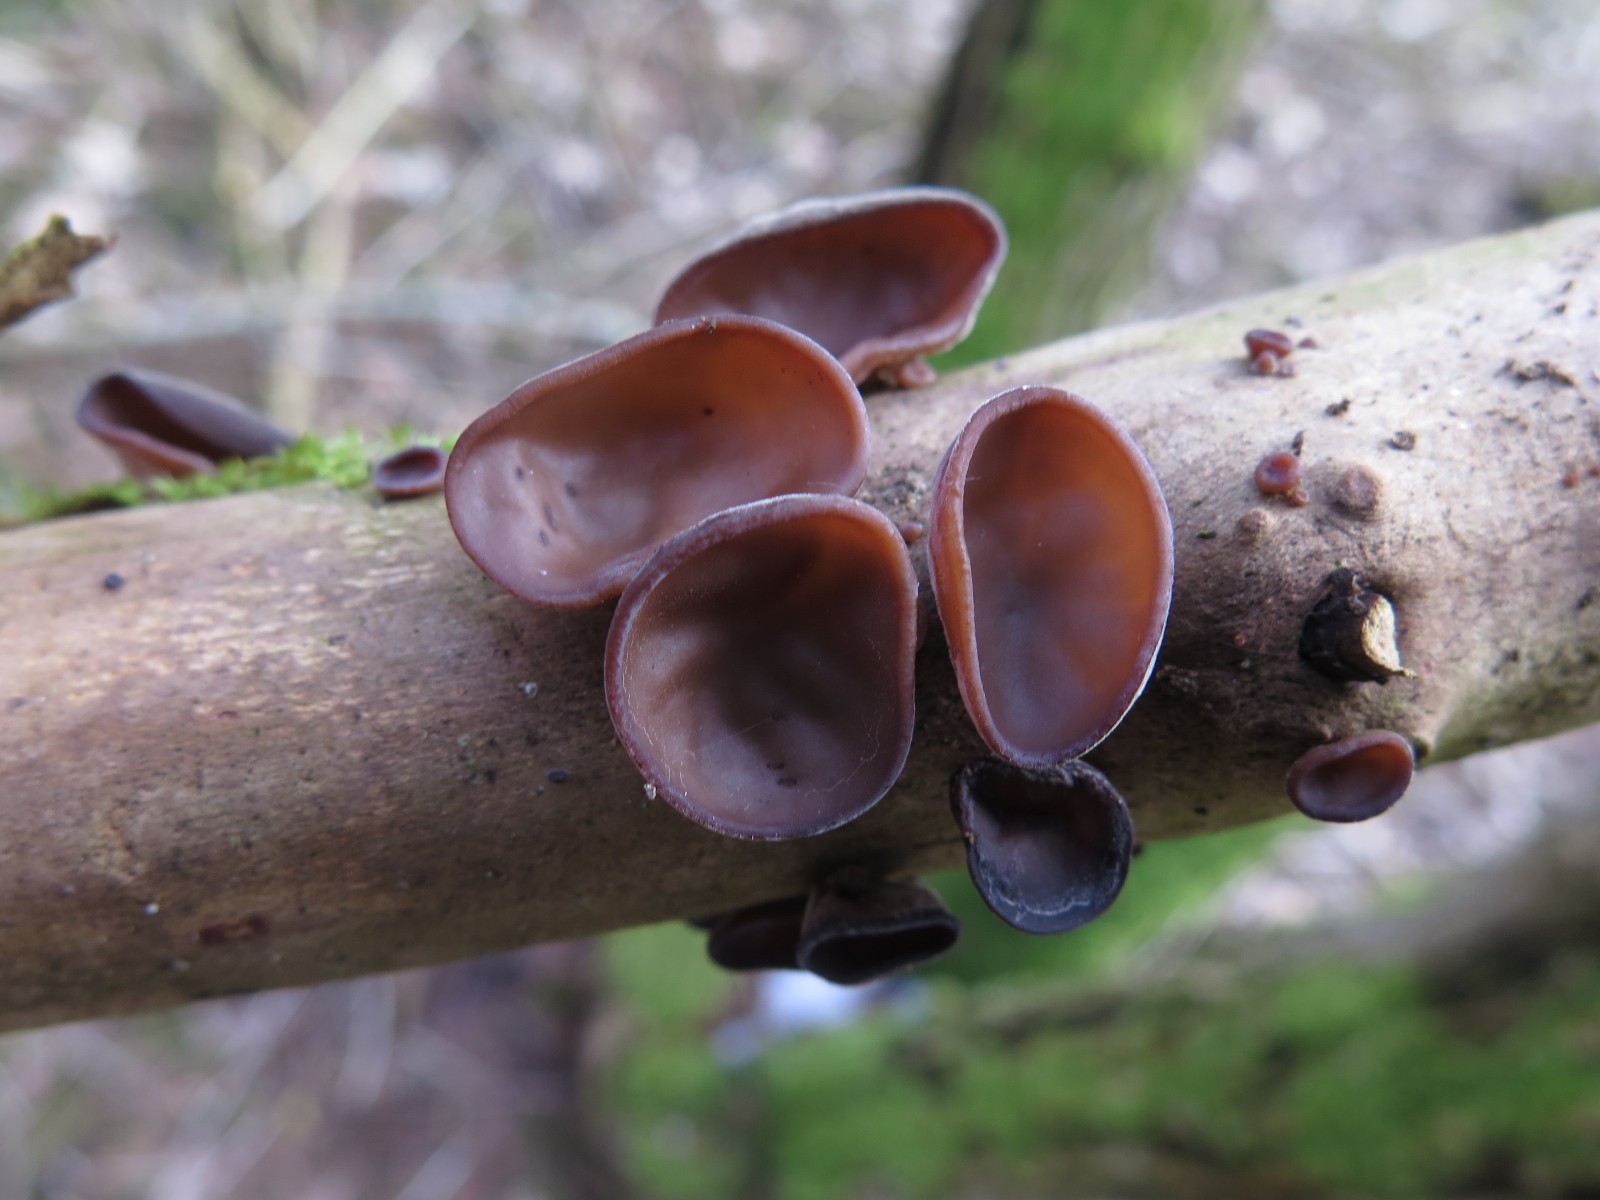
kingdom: Fungi
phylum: Basidiomycota
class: Agaricomycetes
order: Auriculariales
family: Auriculariaceae
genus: Auricularia
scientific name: Auricularia auricula-judae
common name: almindelig judasøre
